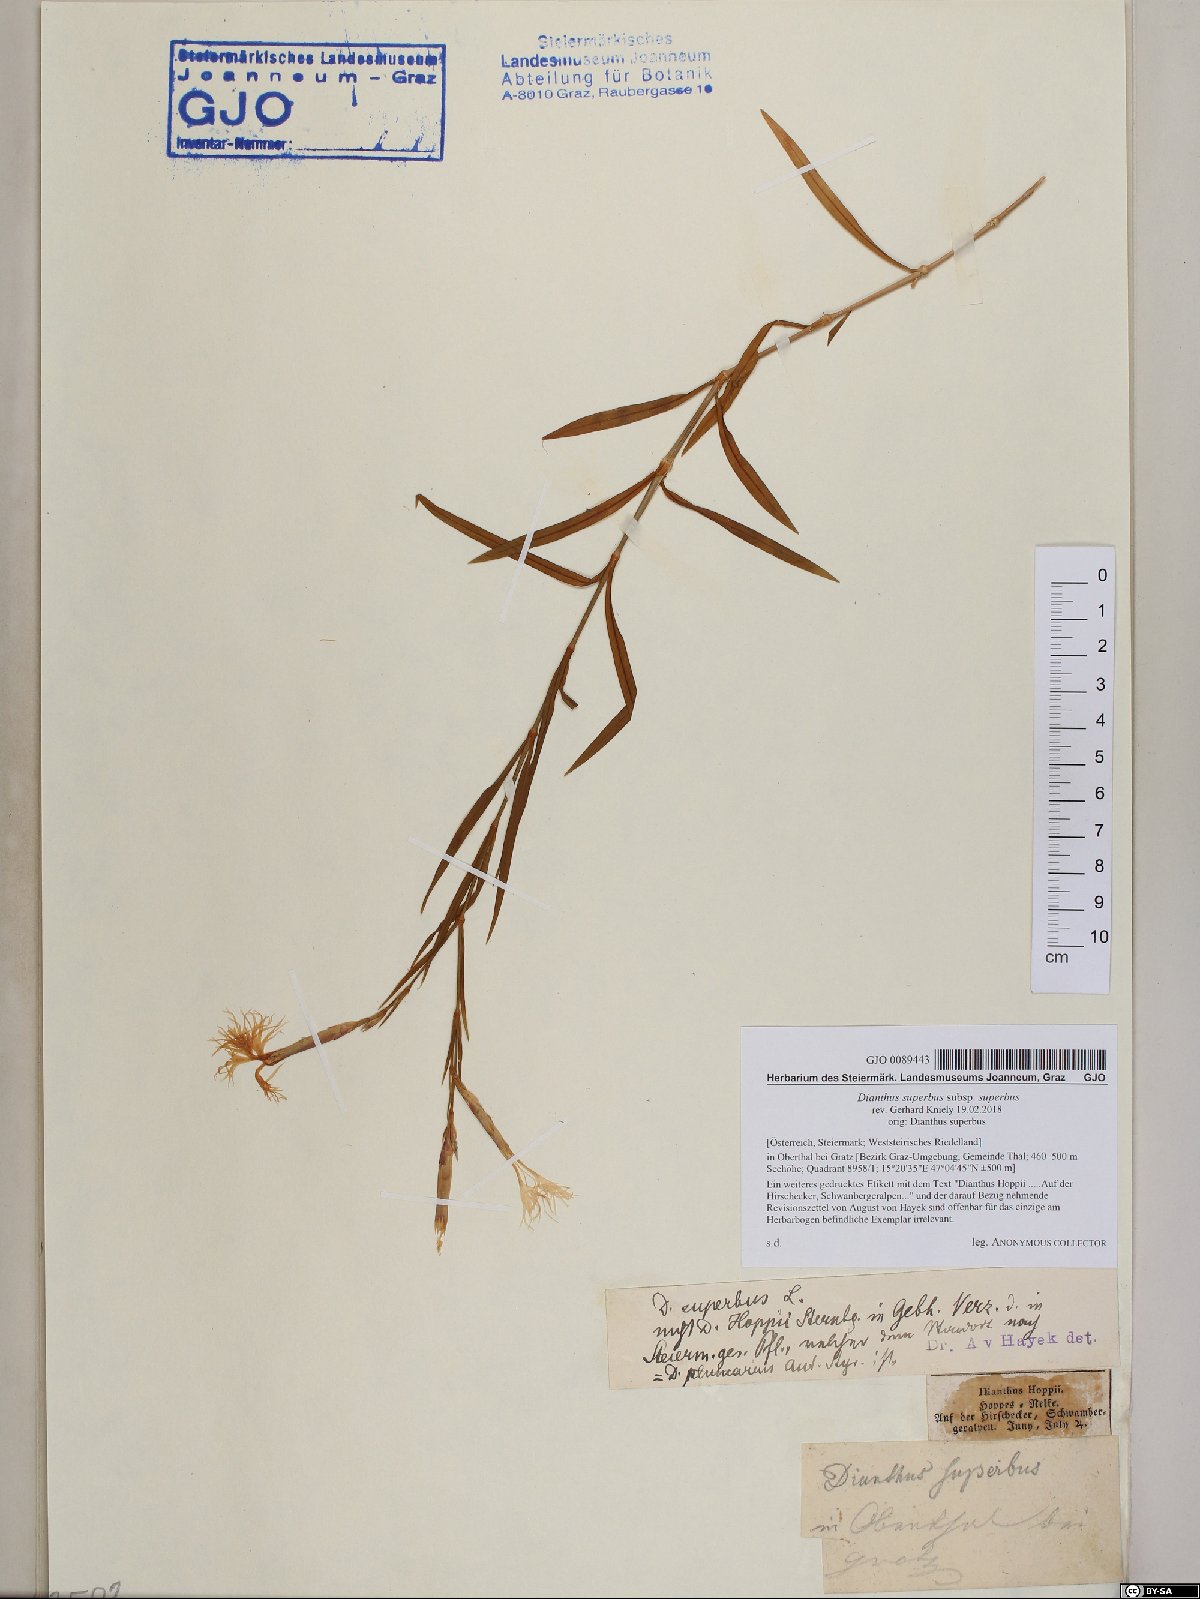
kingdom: Plantae
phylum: Tracheophyta
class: Magnoliopsida
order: Caryophyllales
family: Caryophyllaceae
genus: Dianthus
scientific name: Dianthus superbus
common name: Fringed pink
